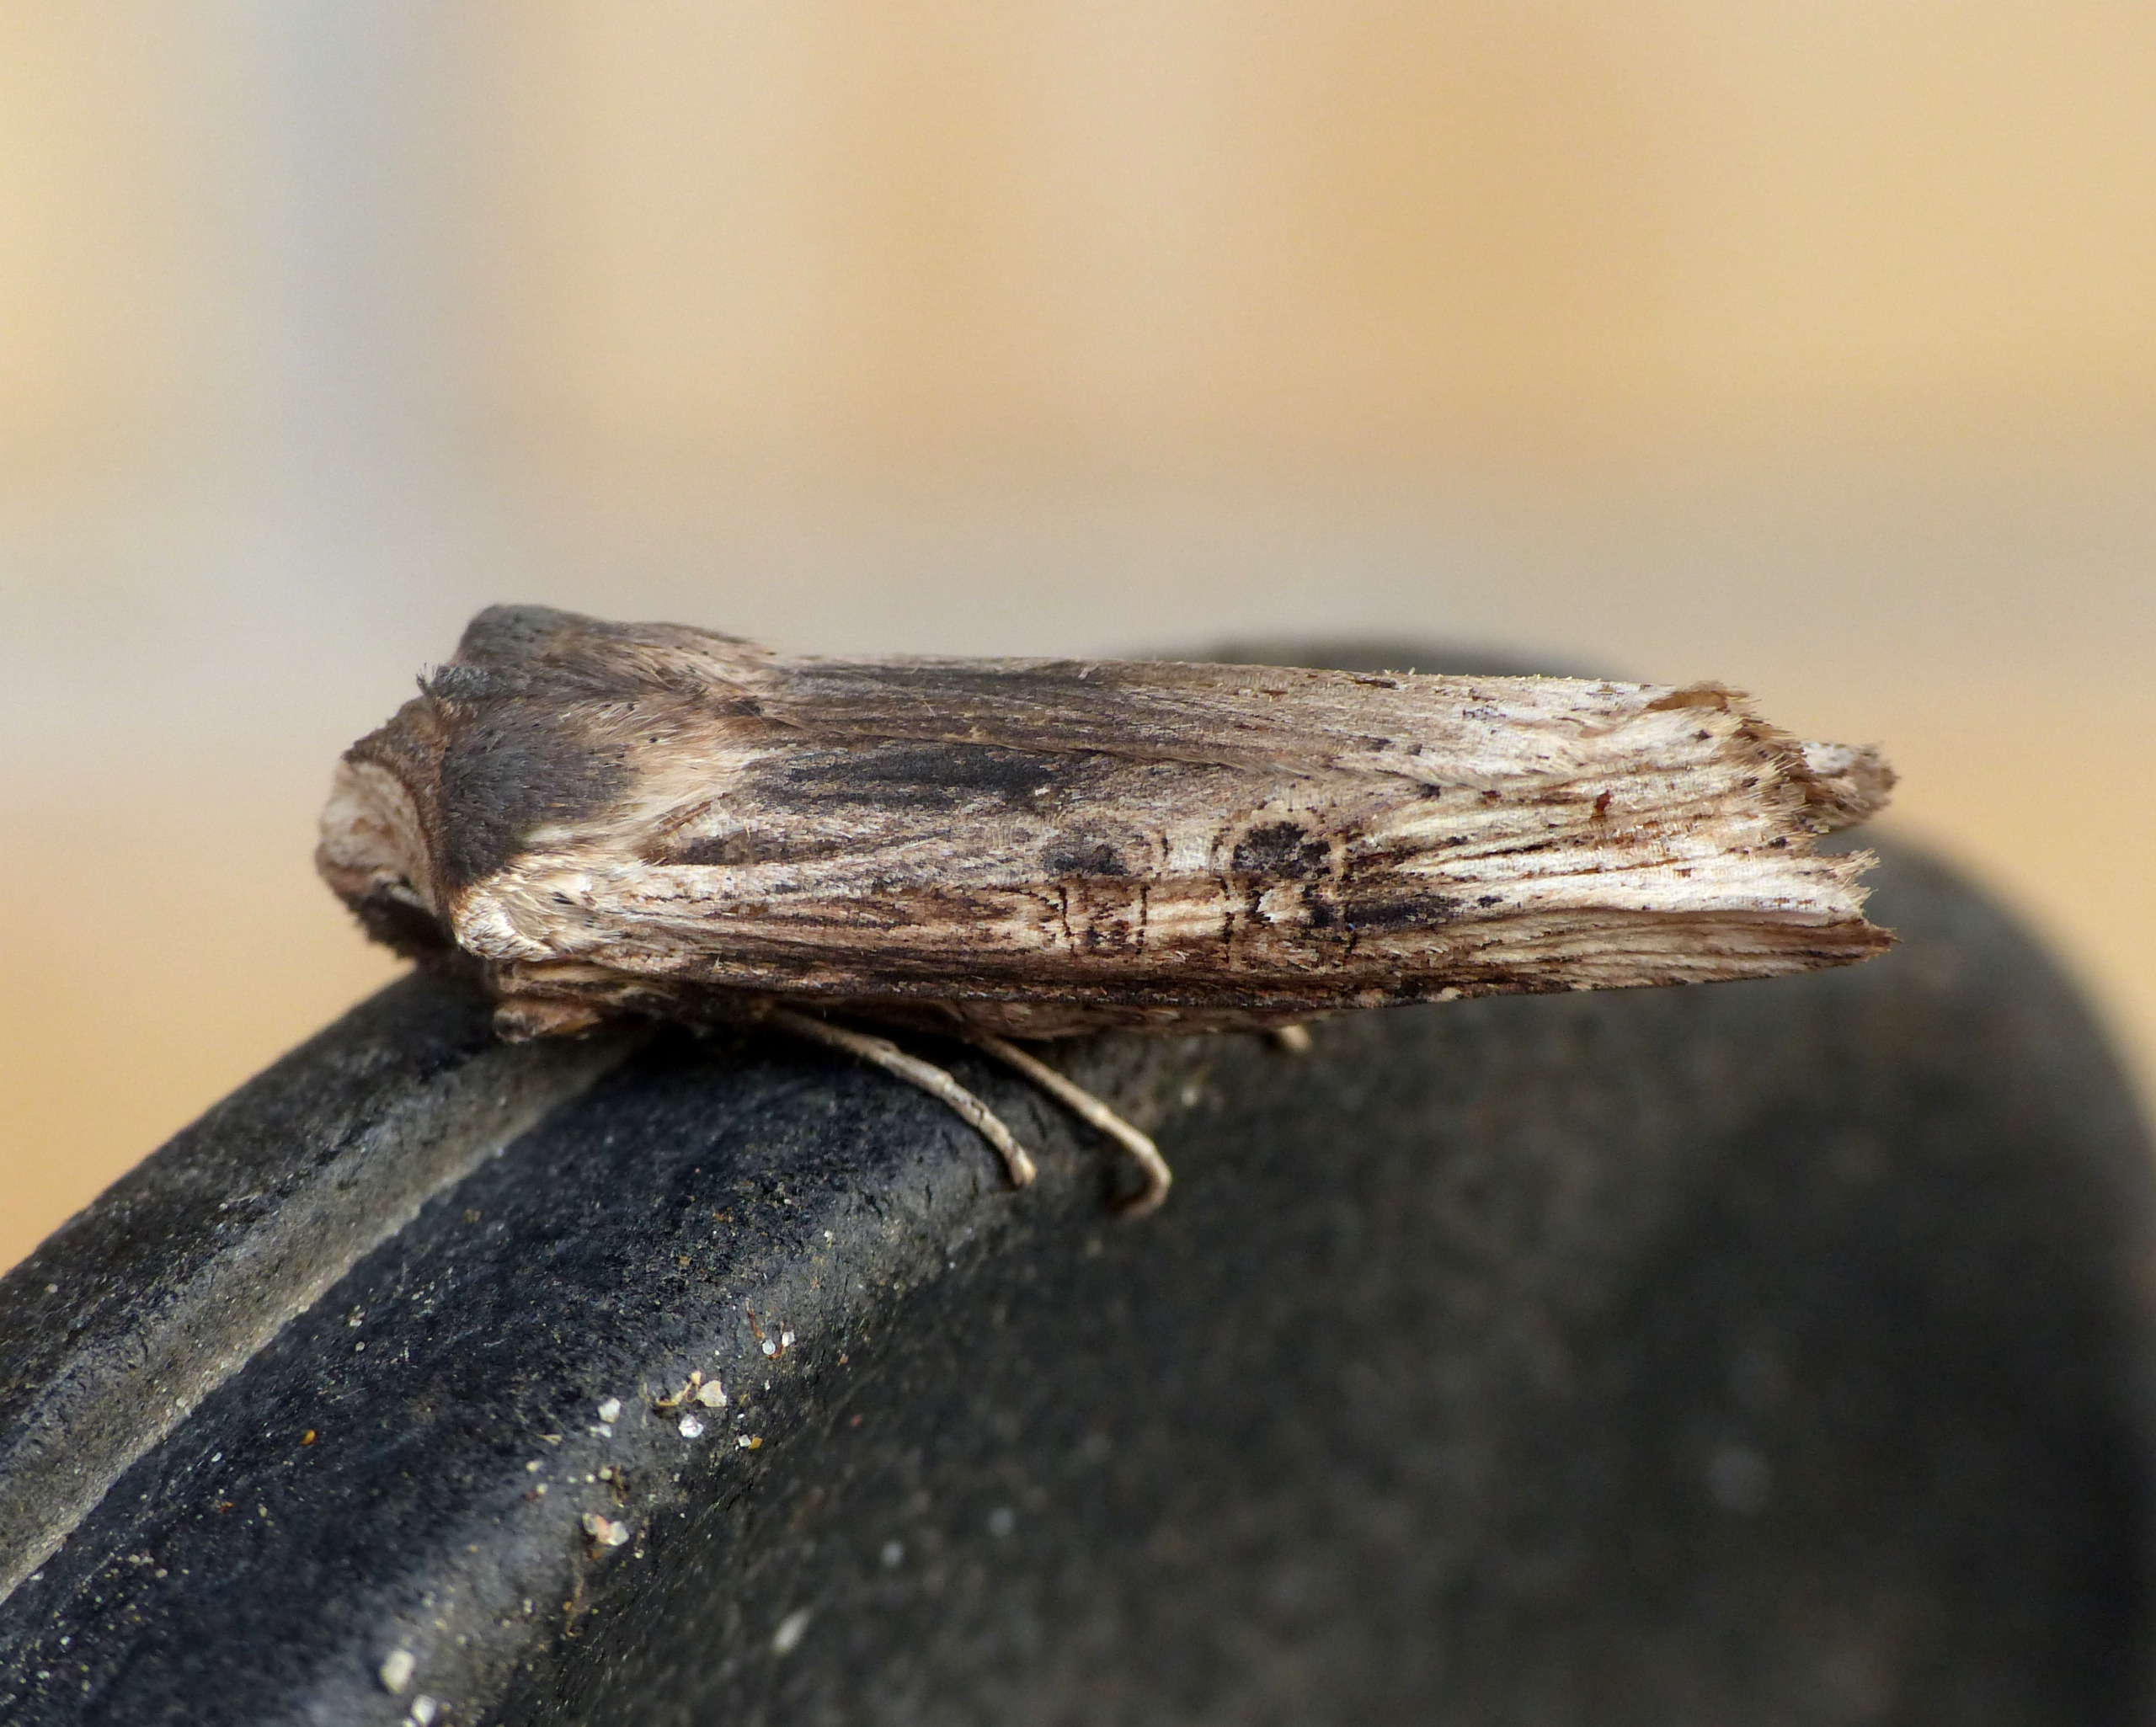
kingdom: Animalia
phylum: Arthropoda
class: Insecta
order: Lepidoptera
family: Noctuidae
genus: Xylena
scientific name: Xylena exsoleta
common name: Kåbeugle
